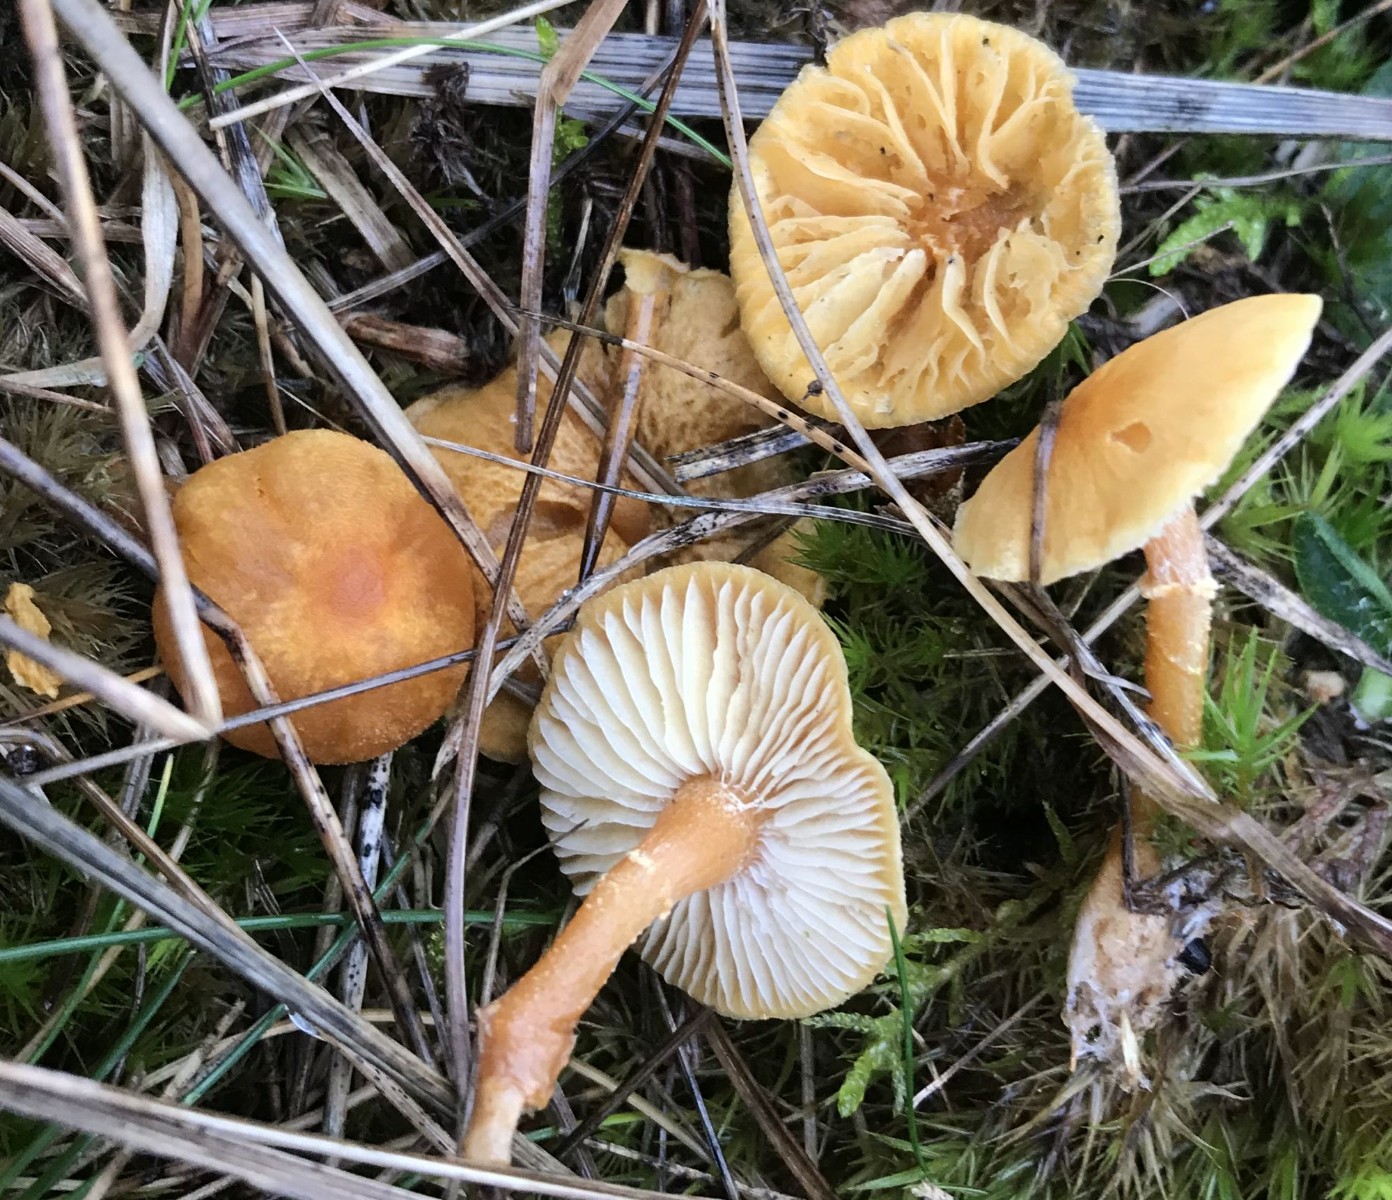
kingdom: Fungi
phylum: Basidiomycota
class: Agaricomycetes
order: Agaricales
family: Tricholomataceae
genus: Cystoderma
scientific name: Cystoderma amianthinum
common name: okkergul grynhat
